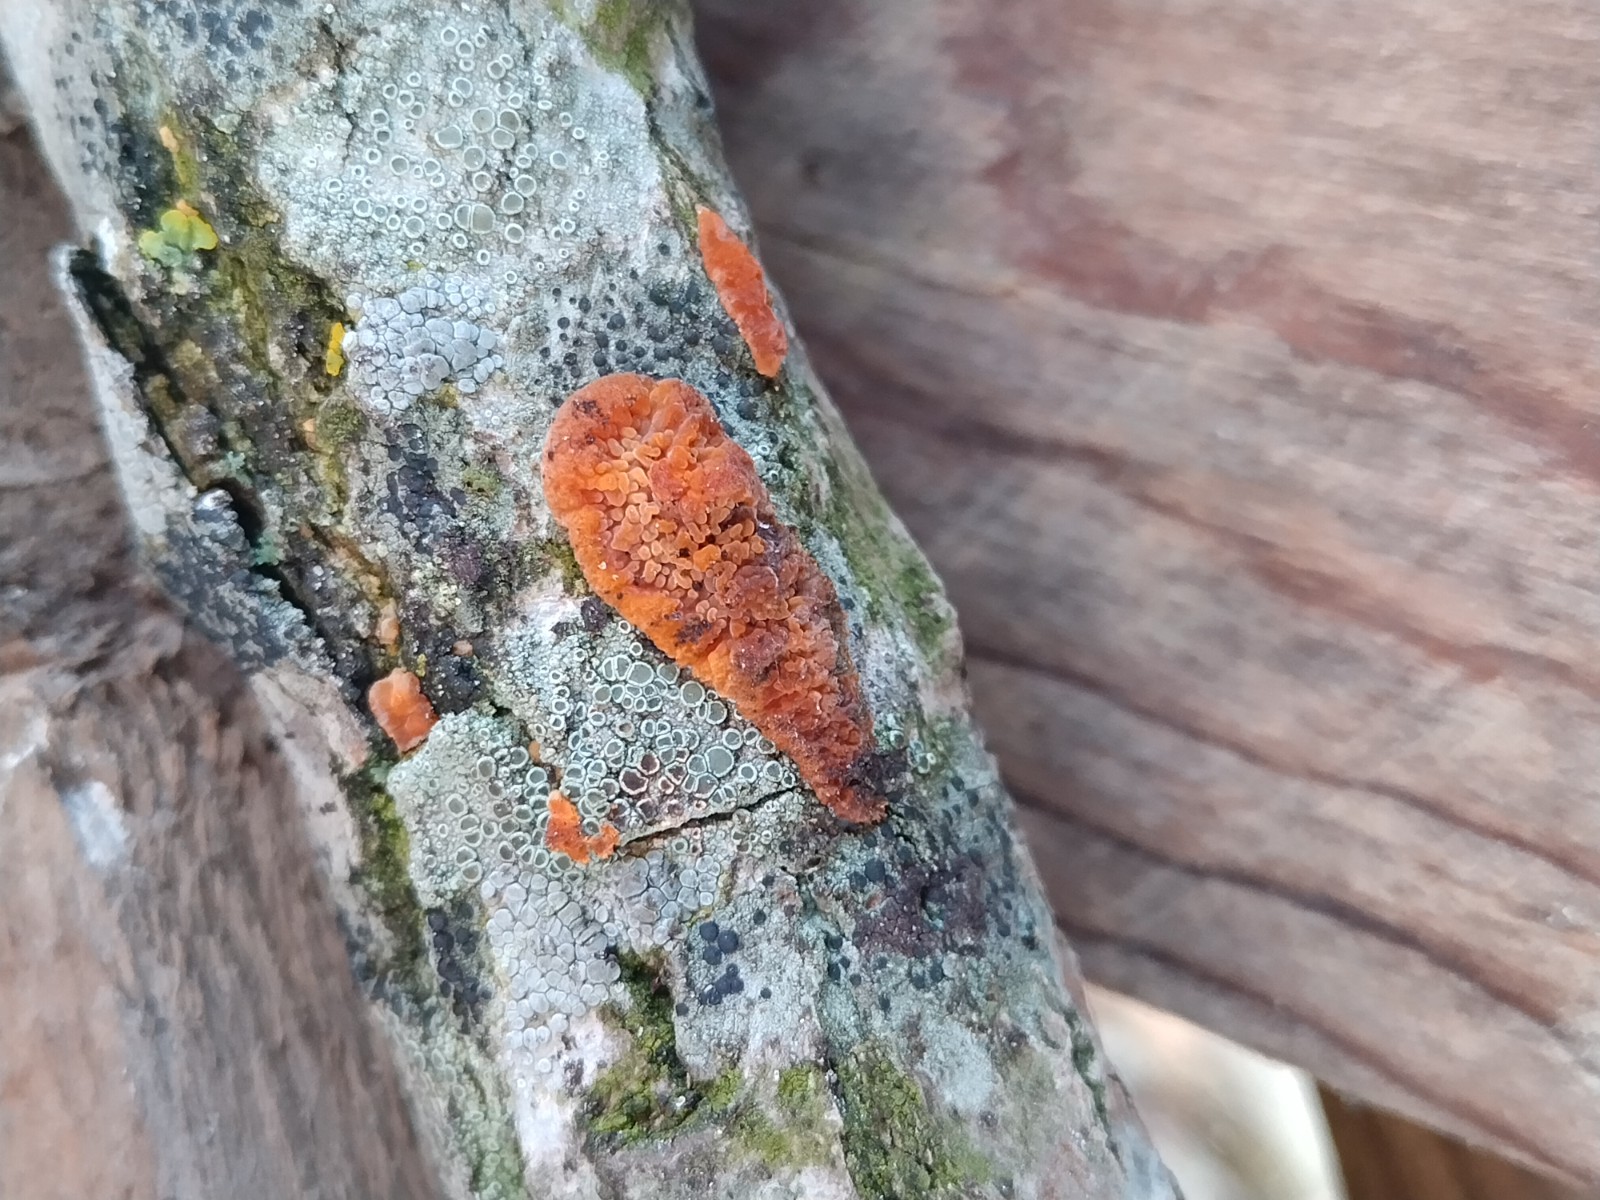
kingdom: Fungi
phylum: Basidiomycota
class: Agaricomycetes
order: Polyporales
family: Meruliaceae
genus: Phlebia
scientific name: Phlebia radiata
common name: stråle-åresvamp
